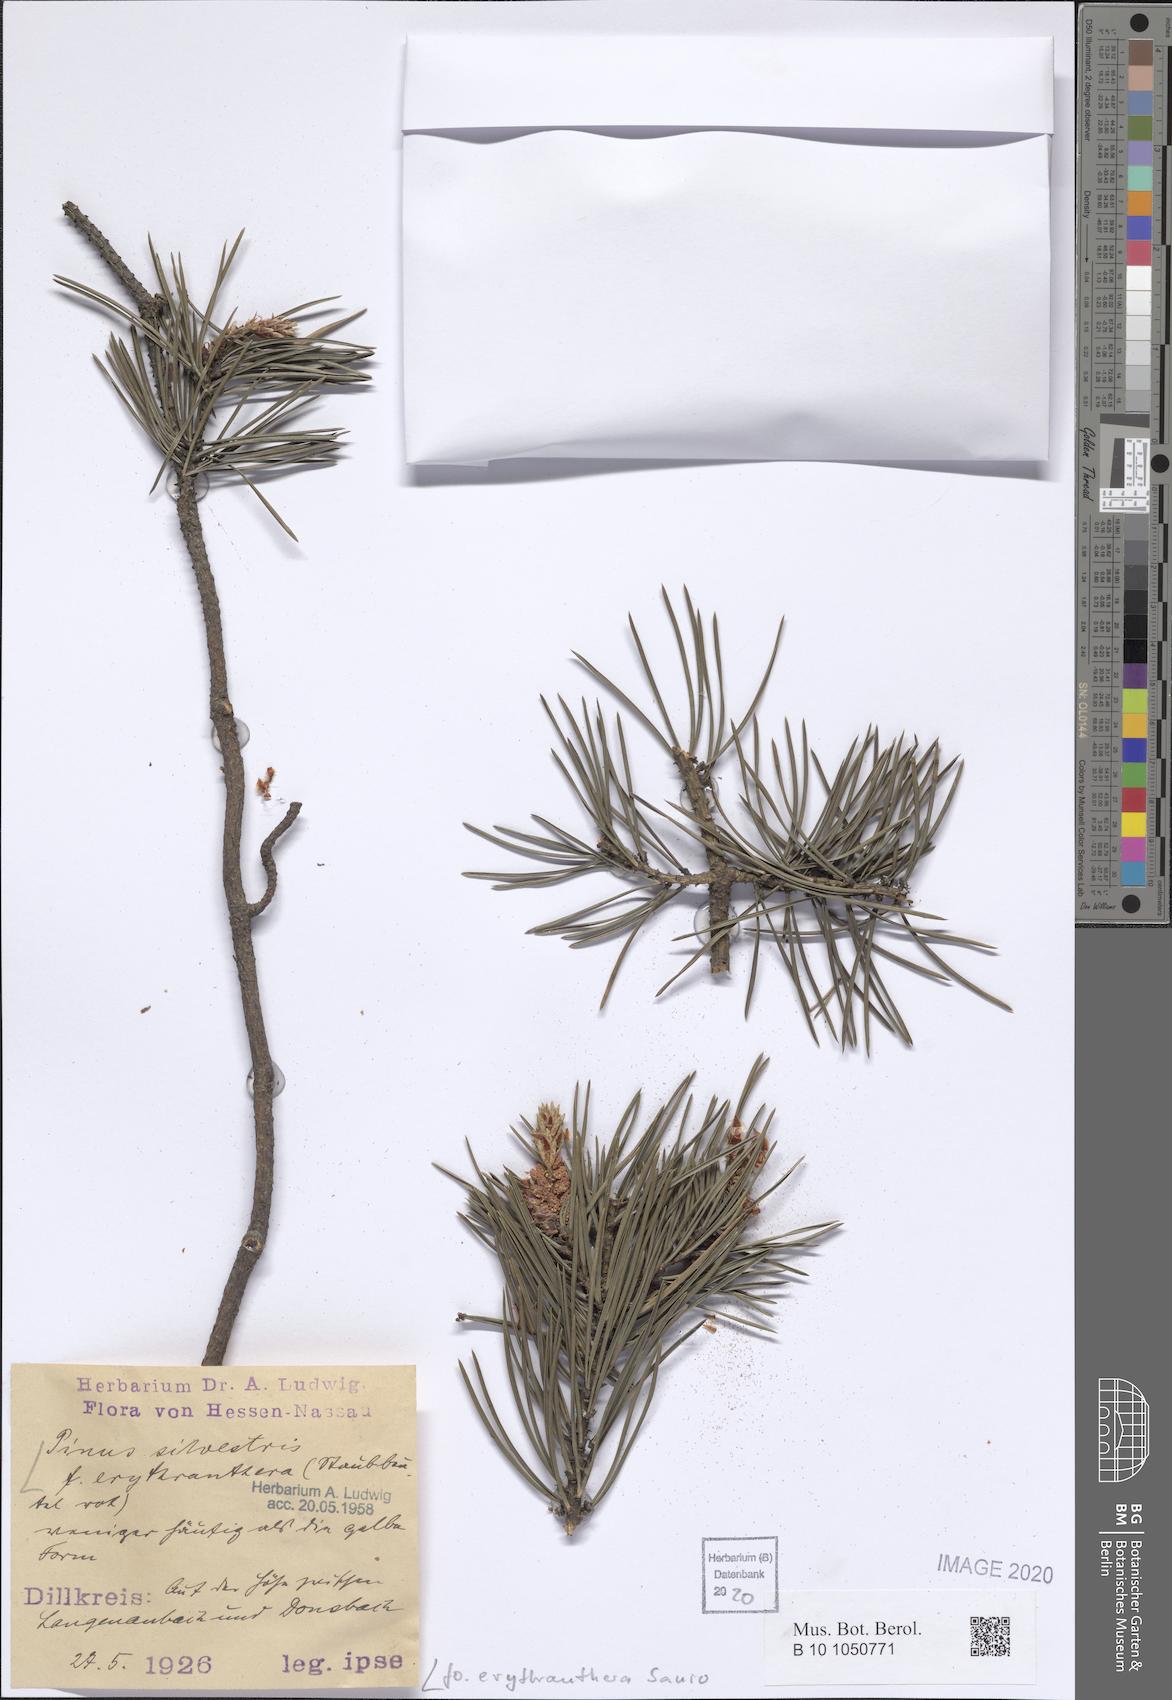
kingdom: Plantae
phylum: Tracheophyta
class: Pinopsida
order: Pinales
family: Pinaceae
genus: Pinus
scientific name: Pinus sylvestris
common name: Scots pine
